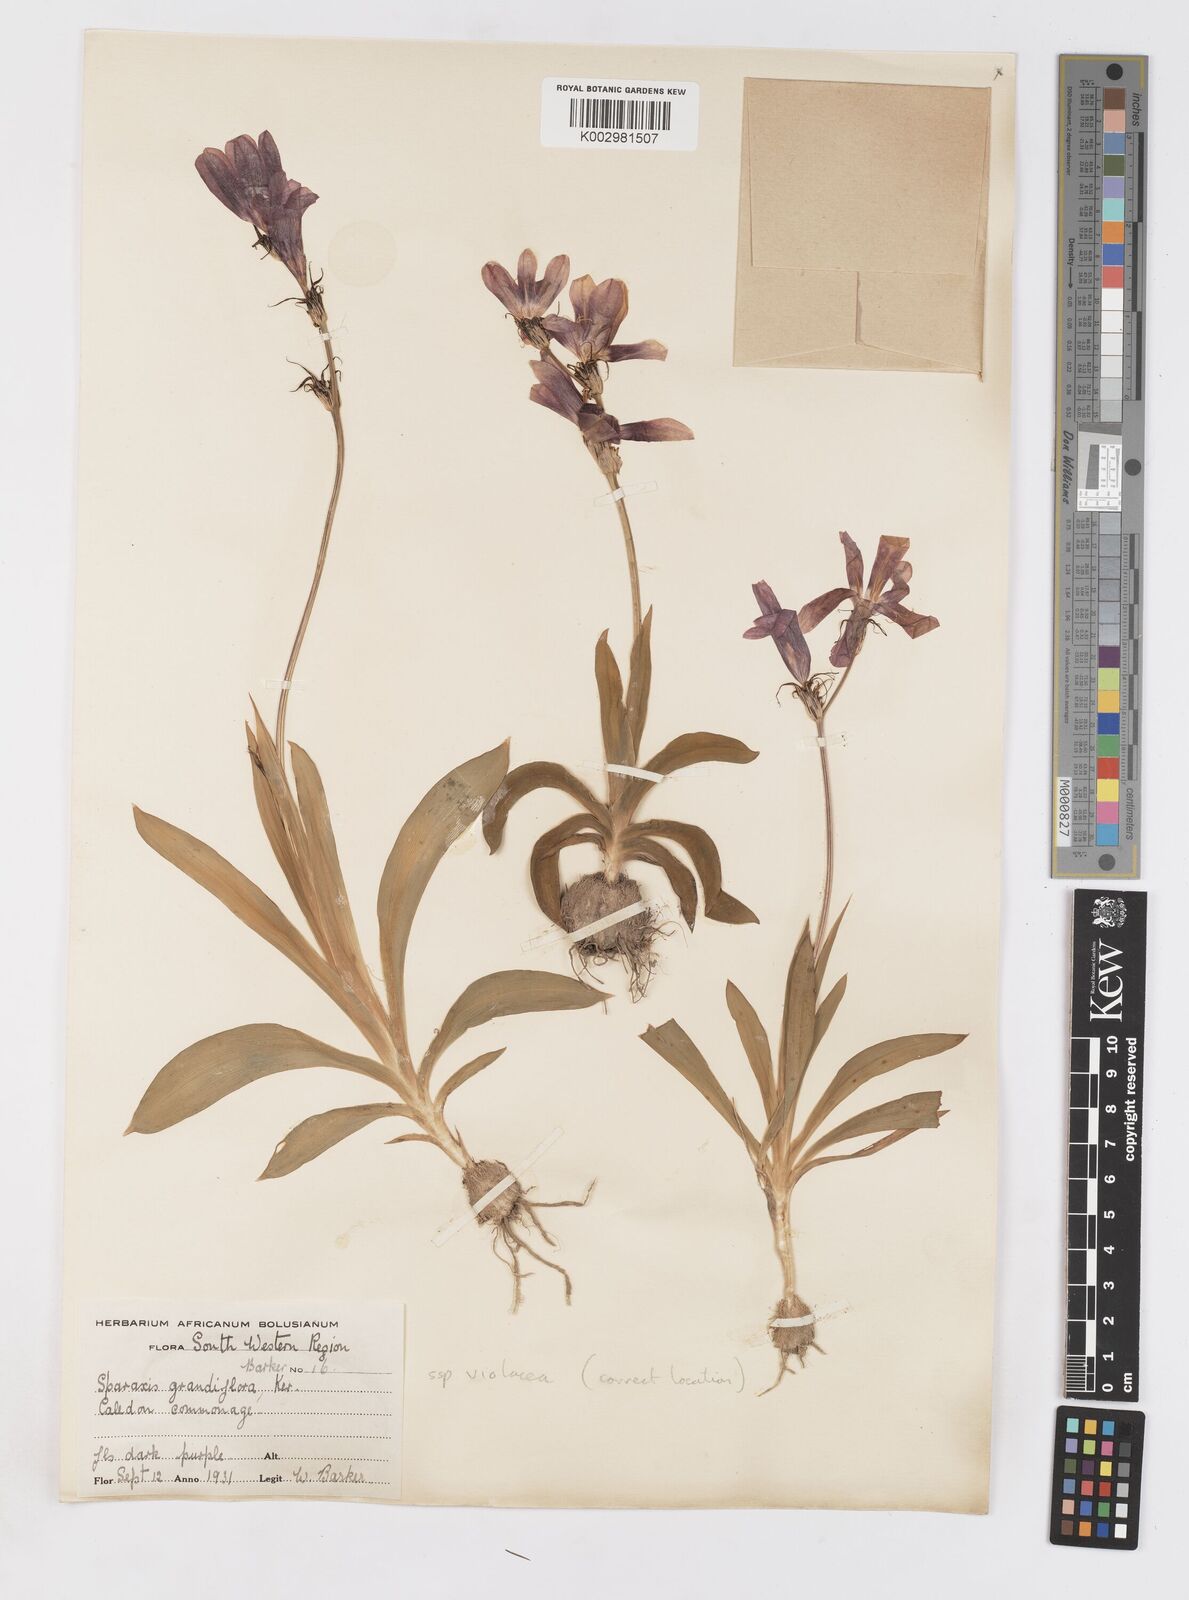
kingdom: Plantae
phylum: Tracheophyta
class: Liliopsida
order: Asparagales
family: Iridaceae
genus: Sparaxis
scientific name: Sparaxis grandiflora
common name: Plain harlequin-flower
